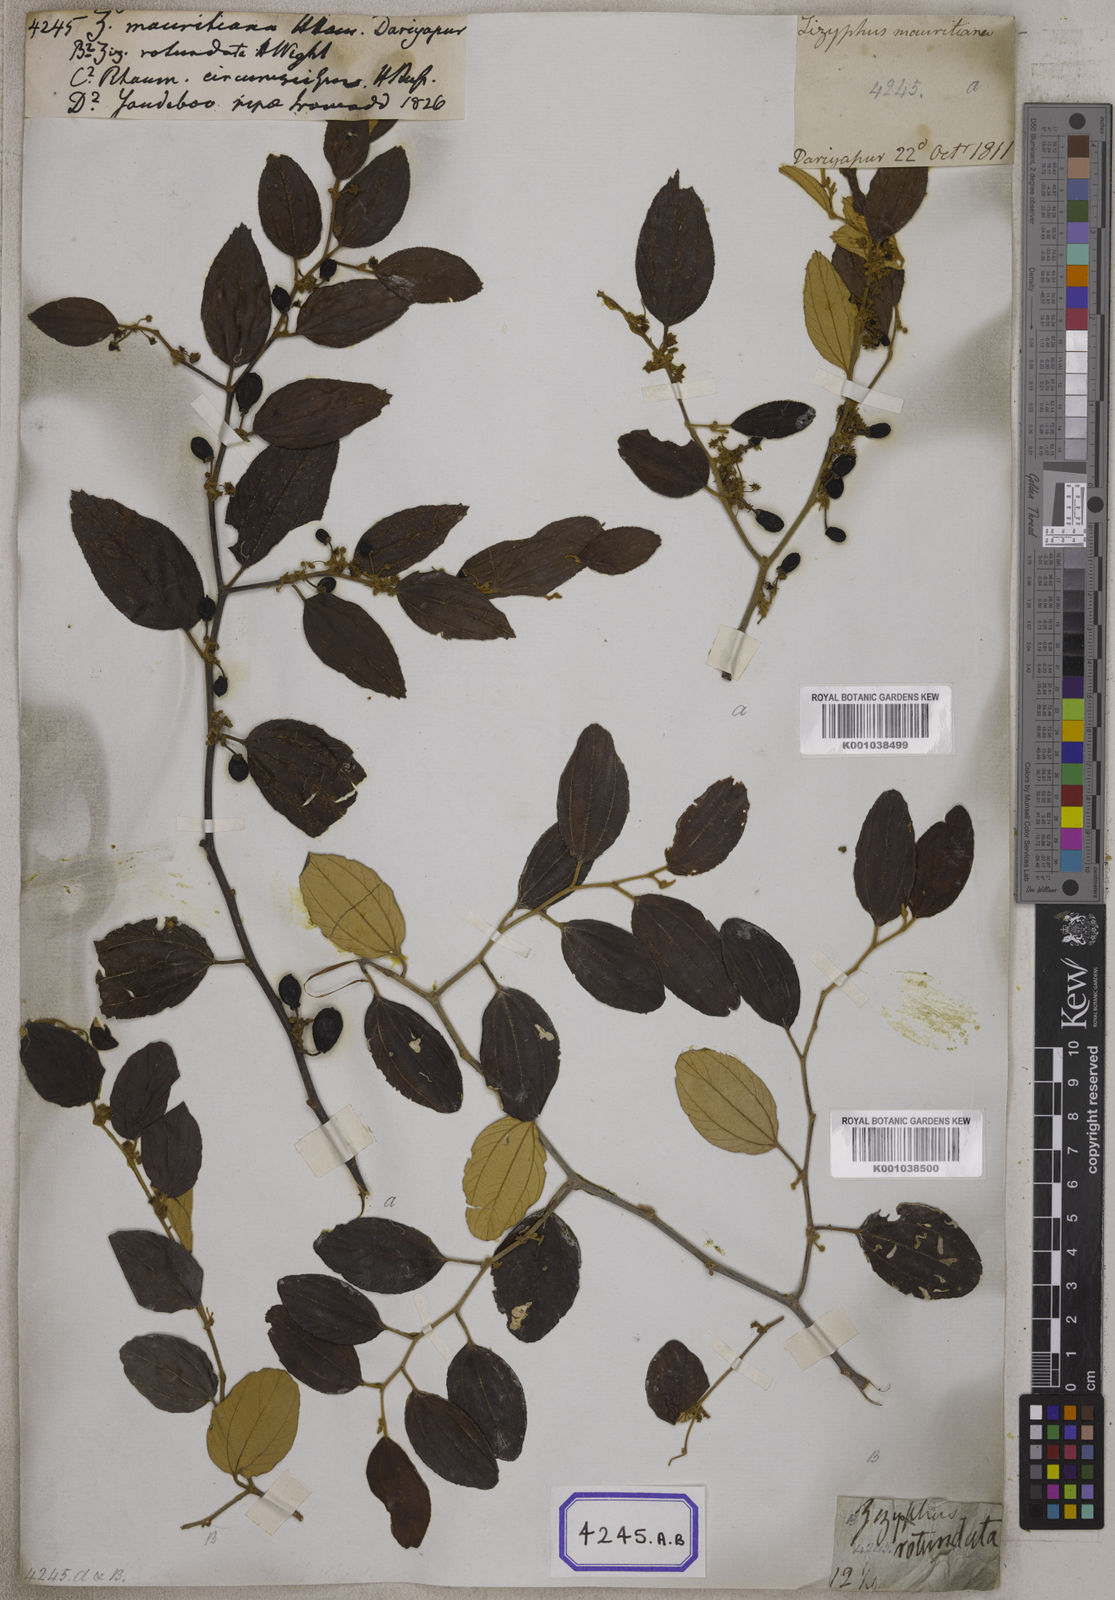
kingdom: Plantae
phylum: Tracheophyta
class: Magnoliopsida
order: Rosales
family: Rhamnaceae
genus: Ziziphus
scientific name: Ziziphus
